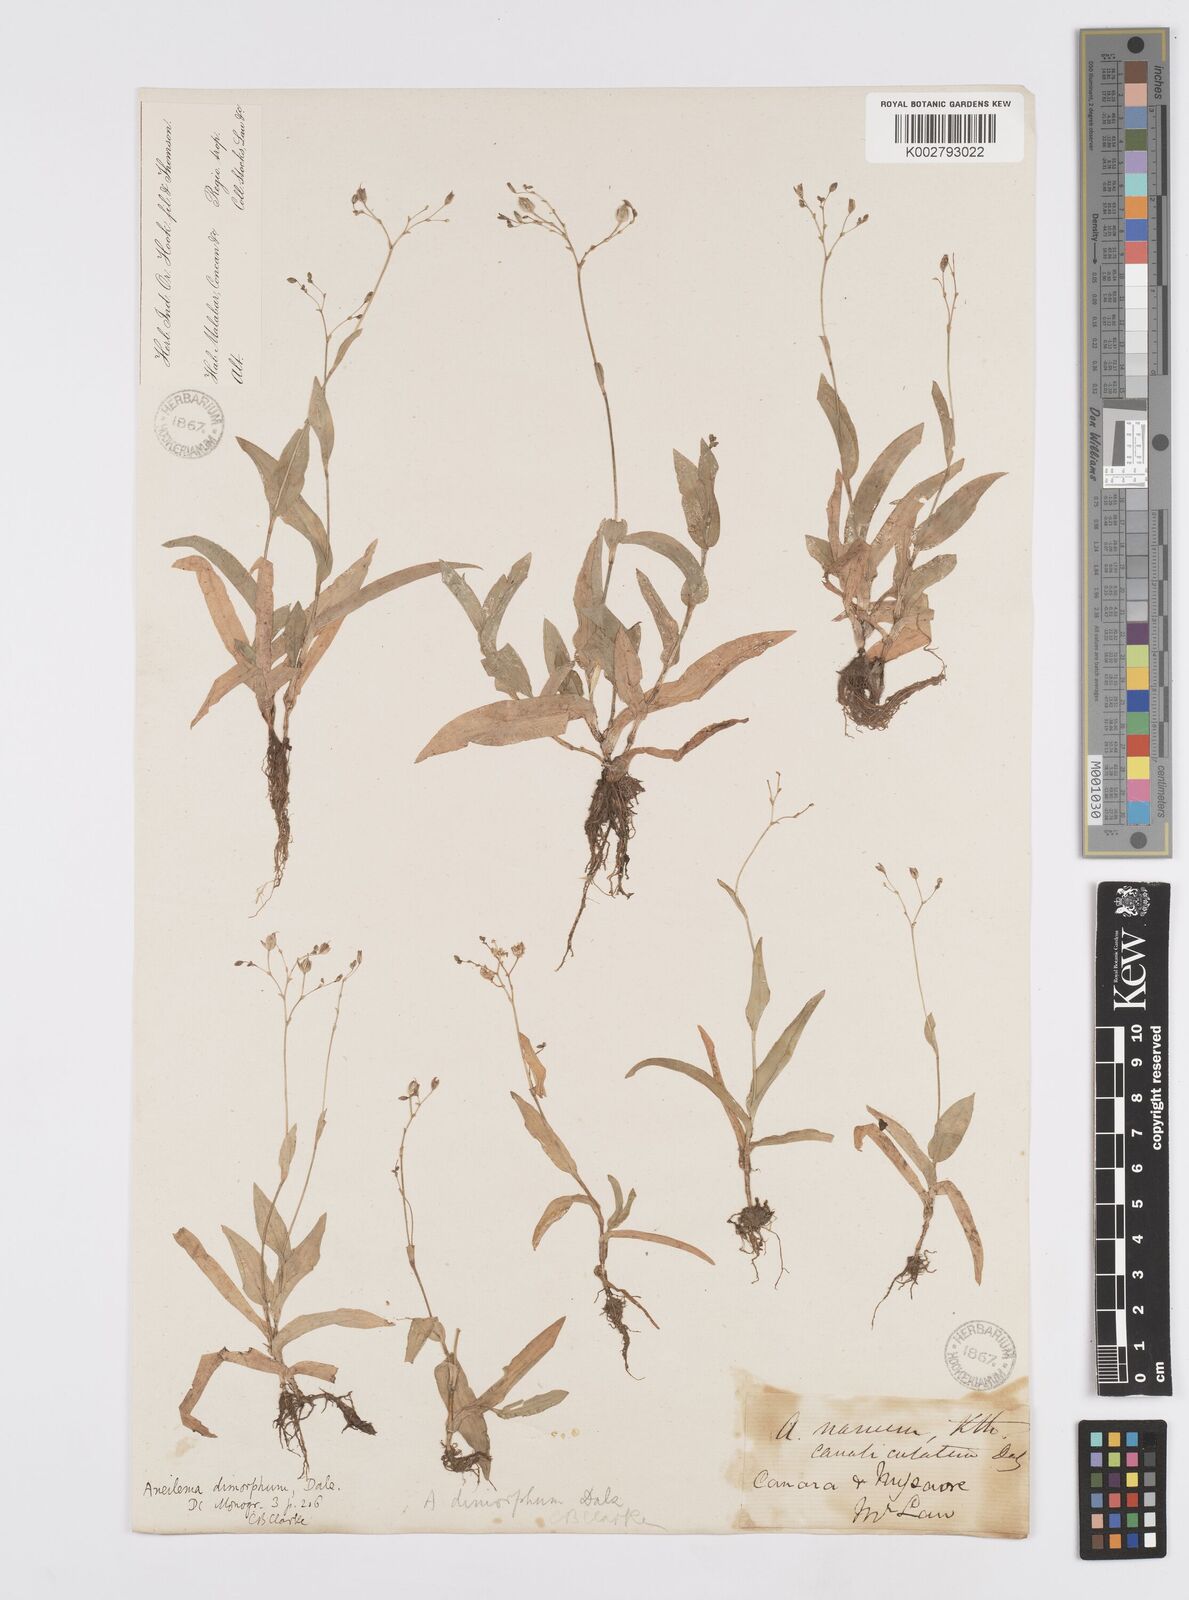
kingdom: Plantae
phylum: Tracheophyta
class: Liliopsida
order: Commelinales
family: Commelinaceae
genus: Murdannia
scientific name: Murdannia dimorpha
